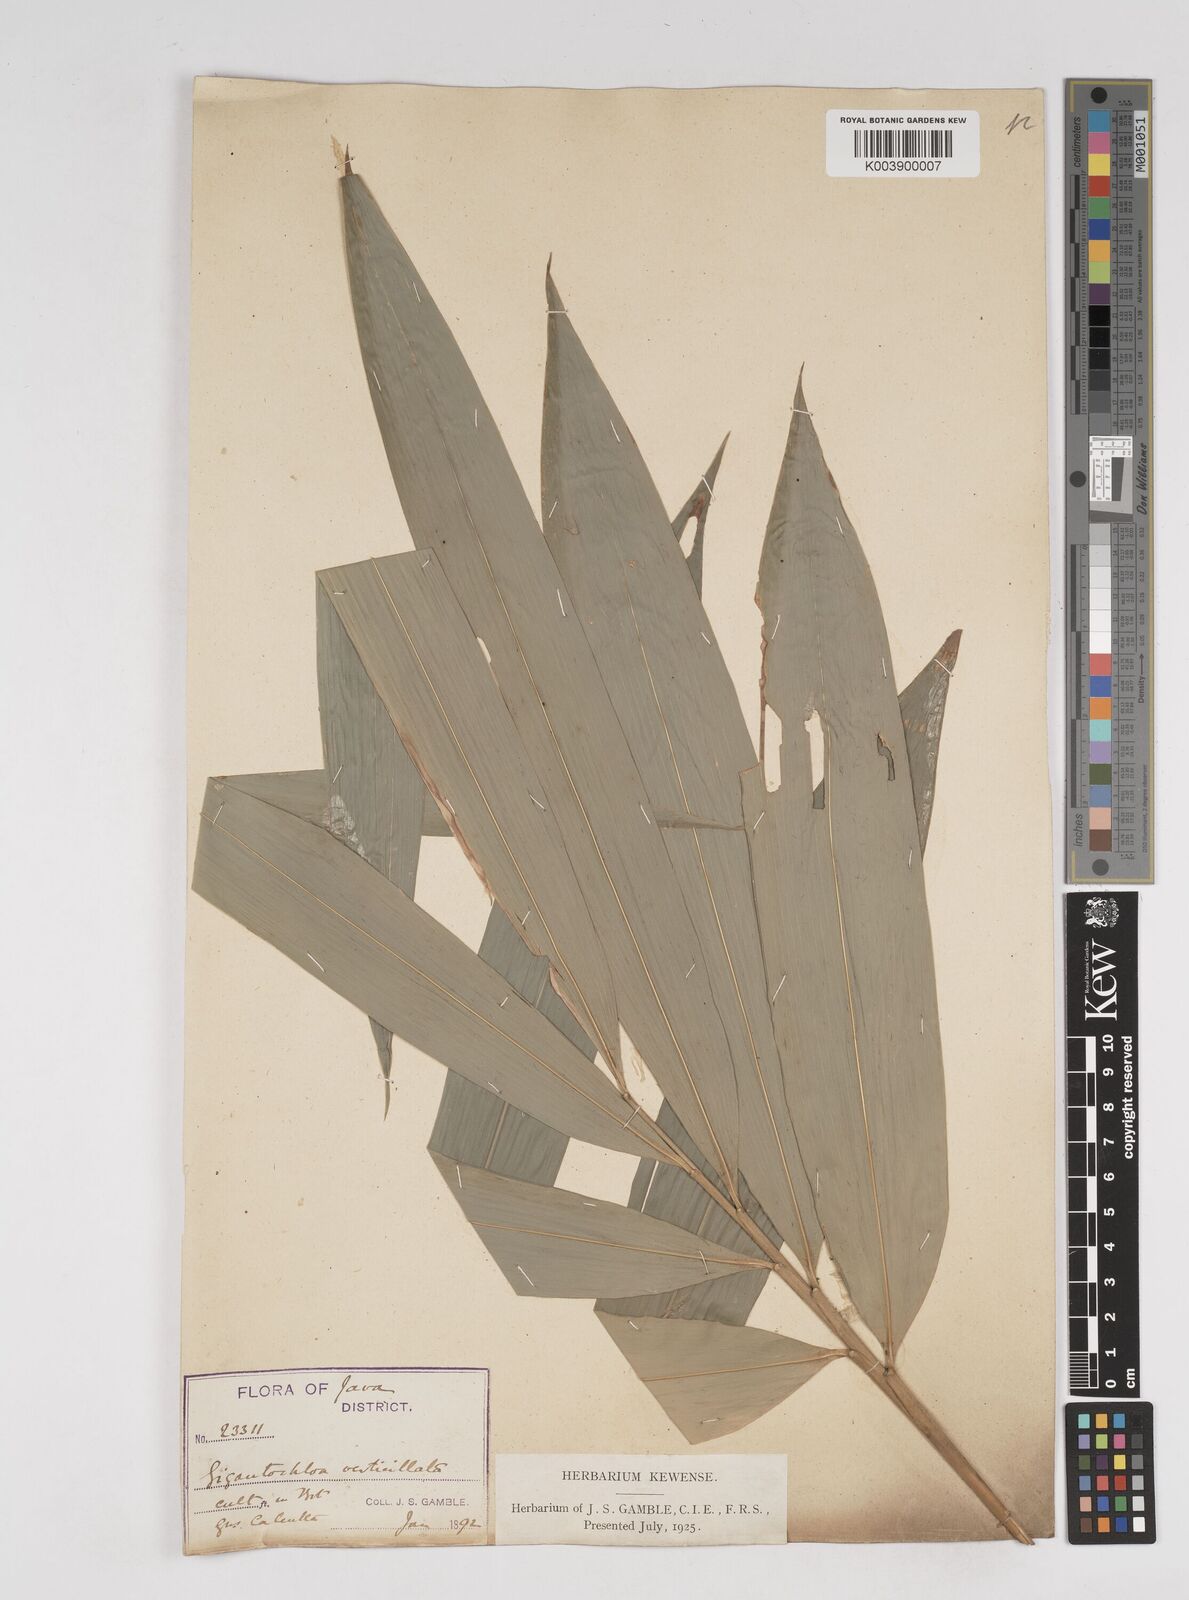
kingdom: Plantae
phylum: Tracheophyta
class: Liliopsida
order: Poales
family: Poaceae
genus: Gigantochloa
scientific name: Gigantochloa verticillata
